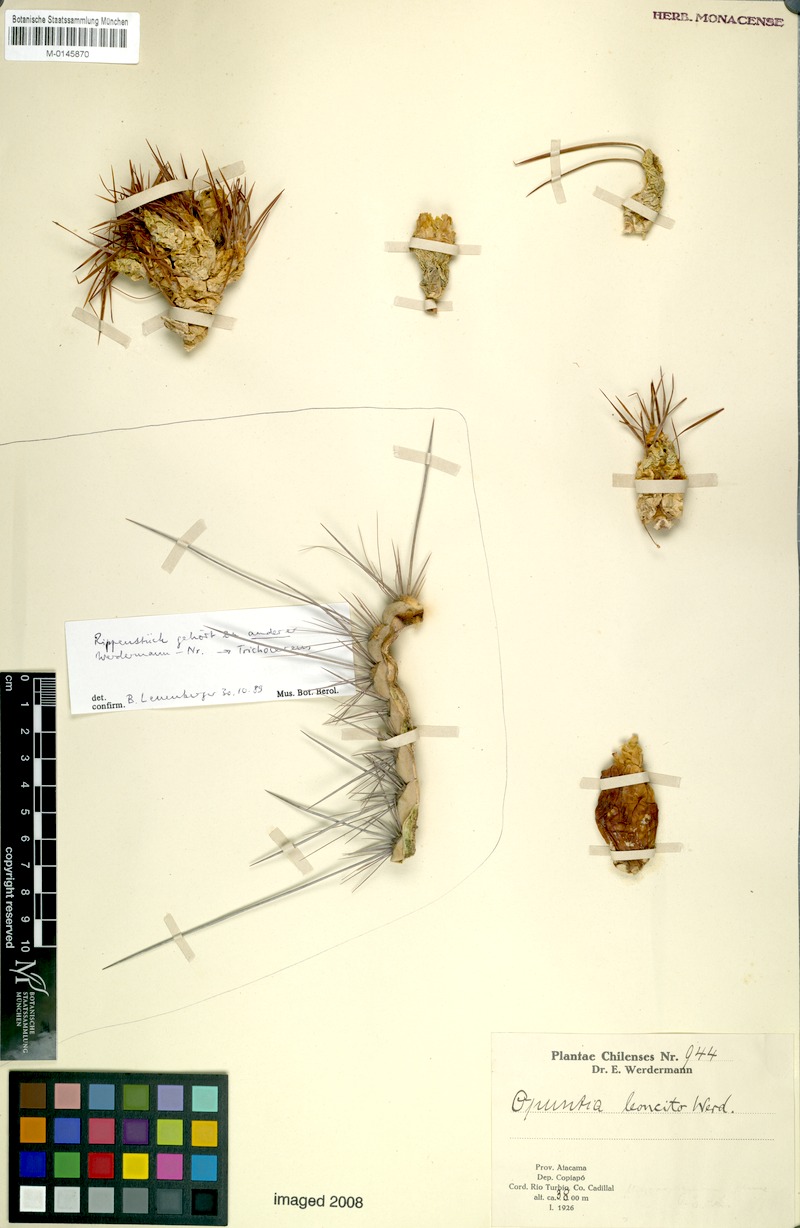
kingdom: Plantae
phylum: Tracheophyta
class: Magnoliopsida
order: Caryophyllales
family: Cactaceae
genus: Maihueniopsis
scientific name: Maihueniopsis glomerata
